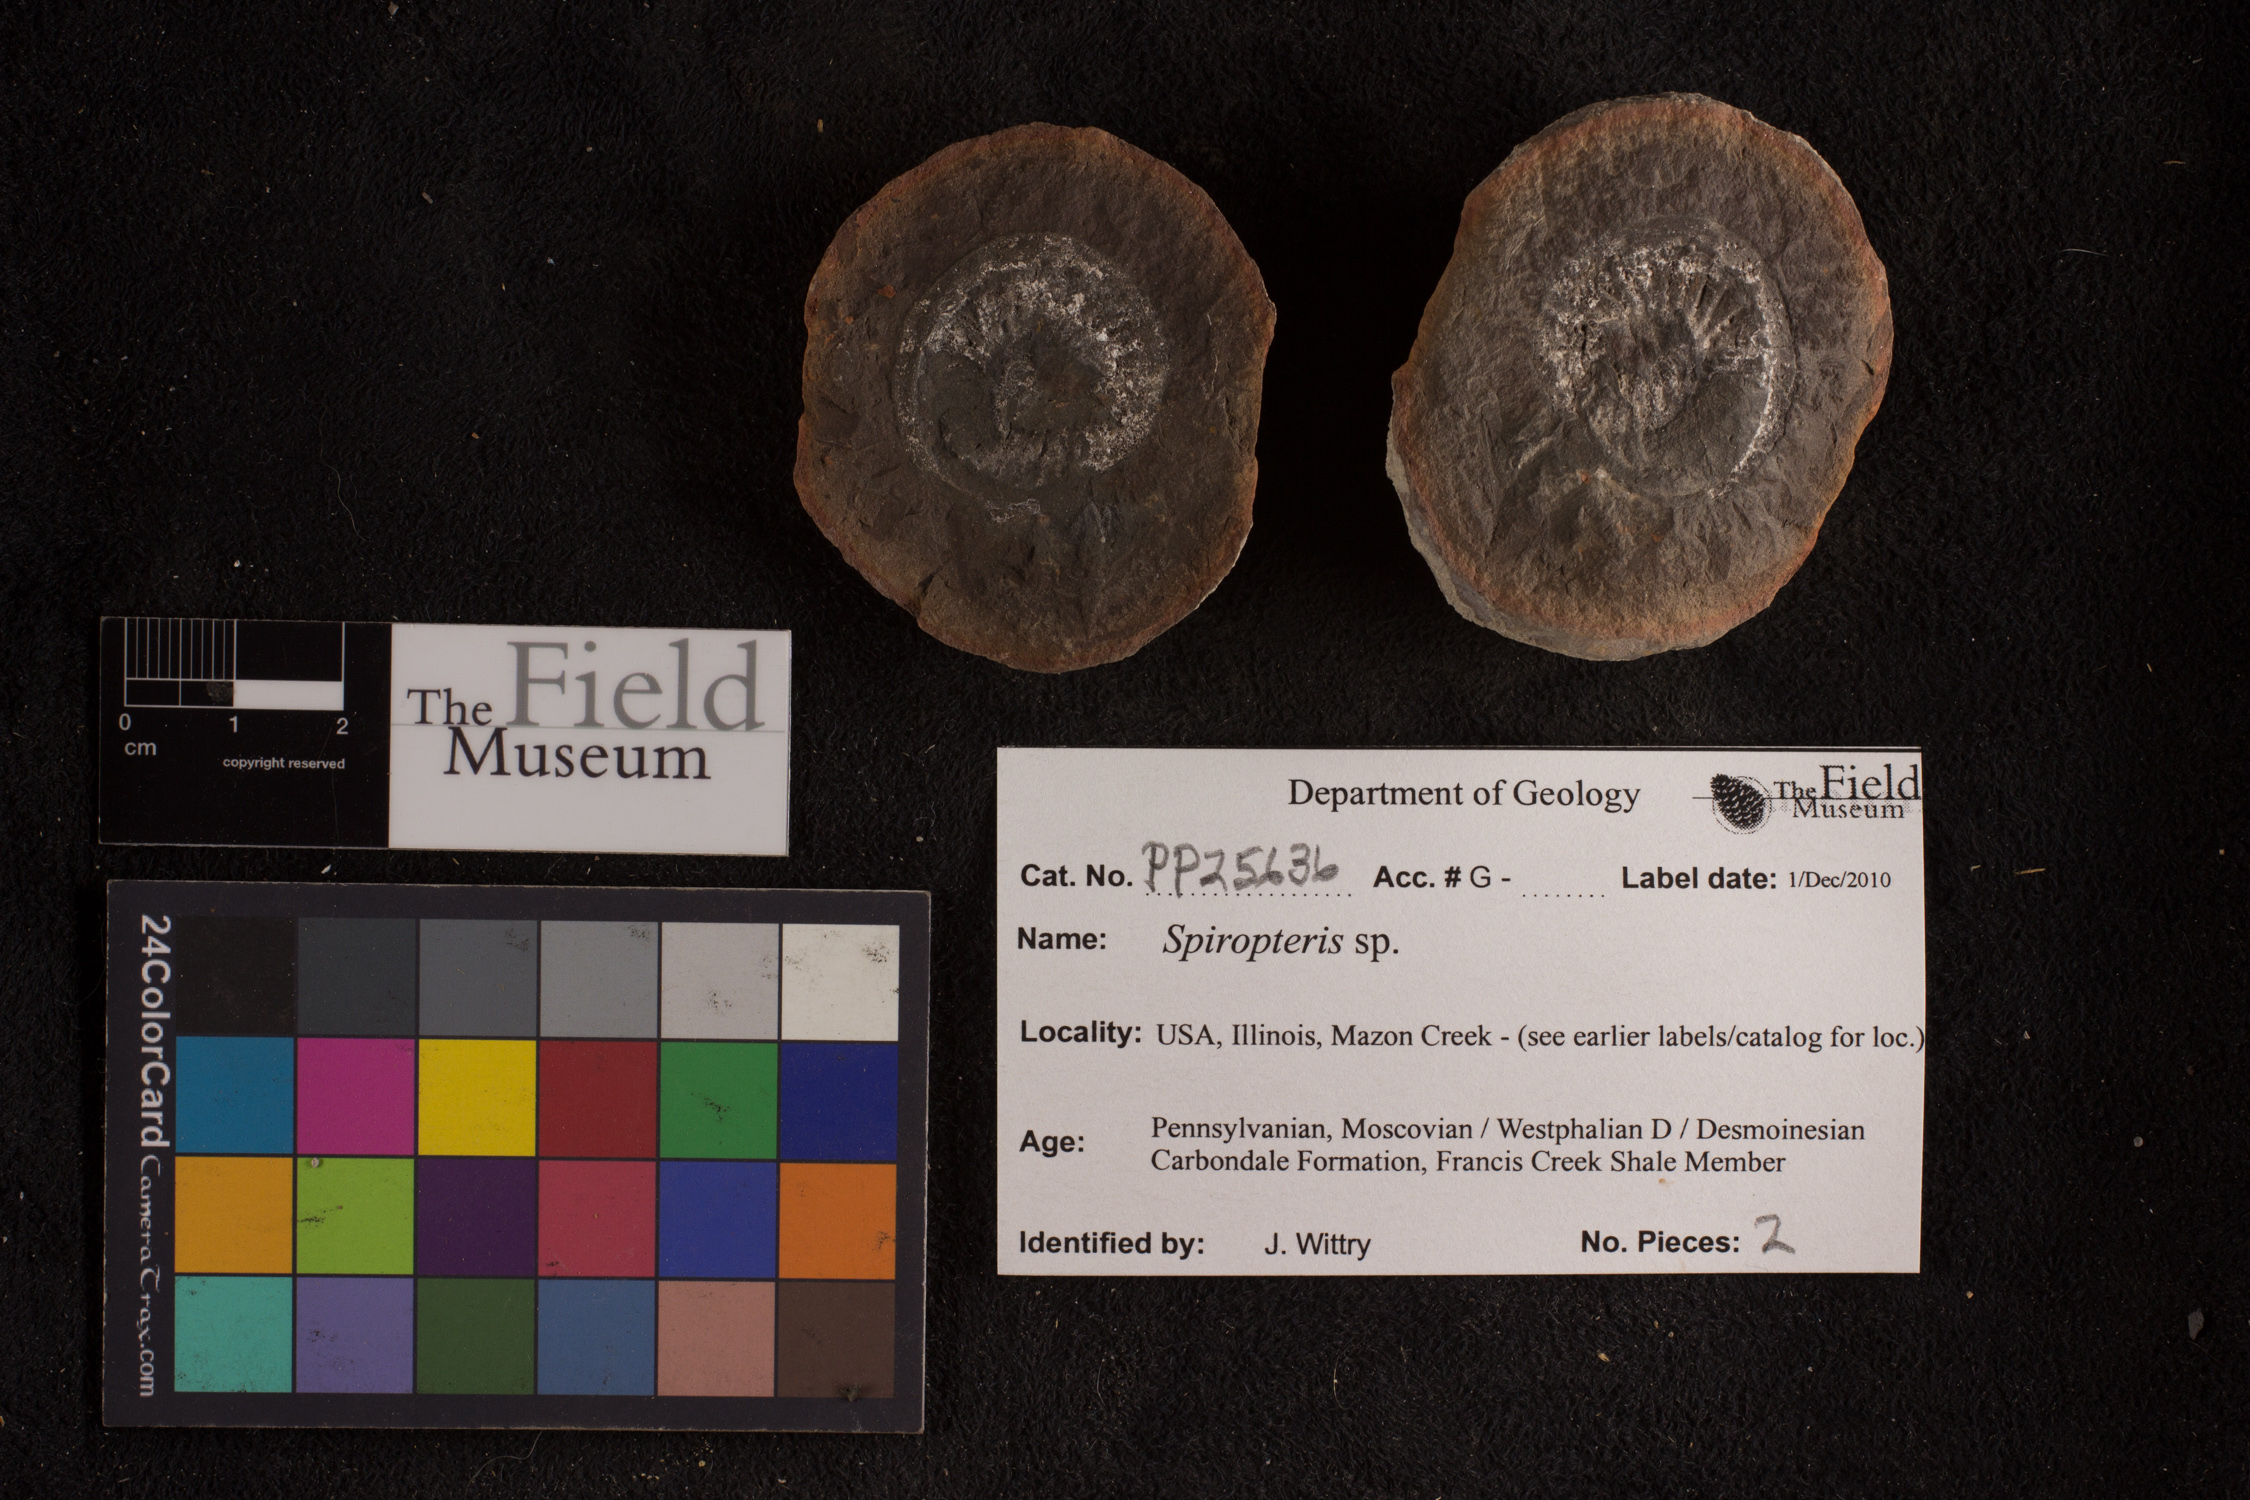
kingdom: Plantae
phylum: Tracheophyta
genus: Spiropteris
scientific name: Spiropteris
